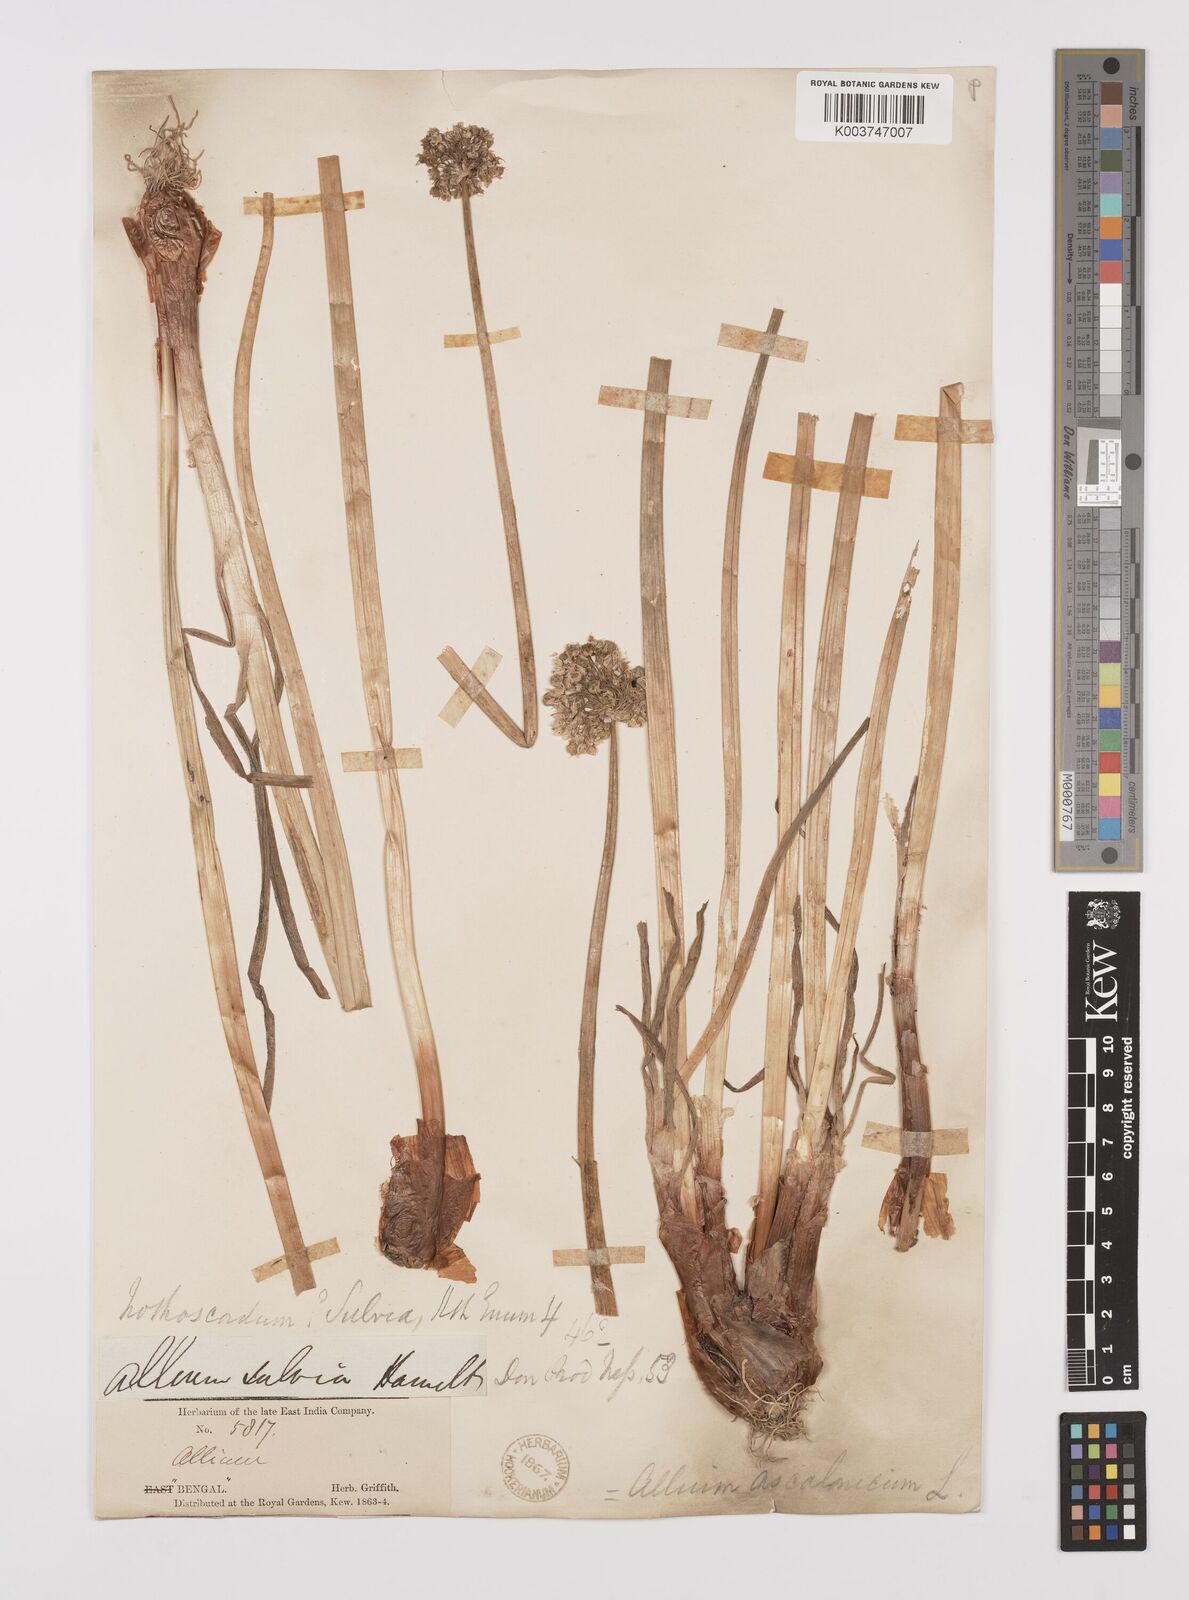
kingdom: Plantae
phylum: Tracheophyta
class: Liliopsida
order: Asparagales
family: Amaryllidaceae
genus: Allium
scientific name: Allium ascalonicum
